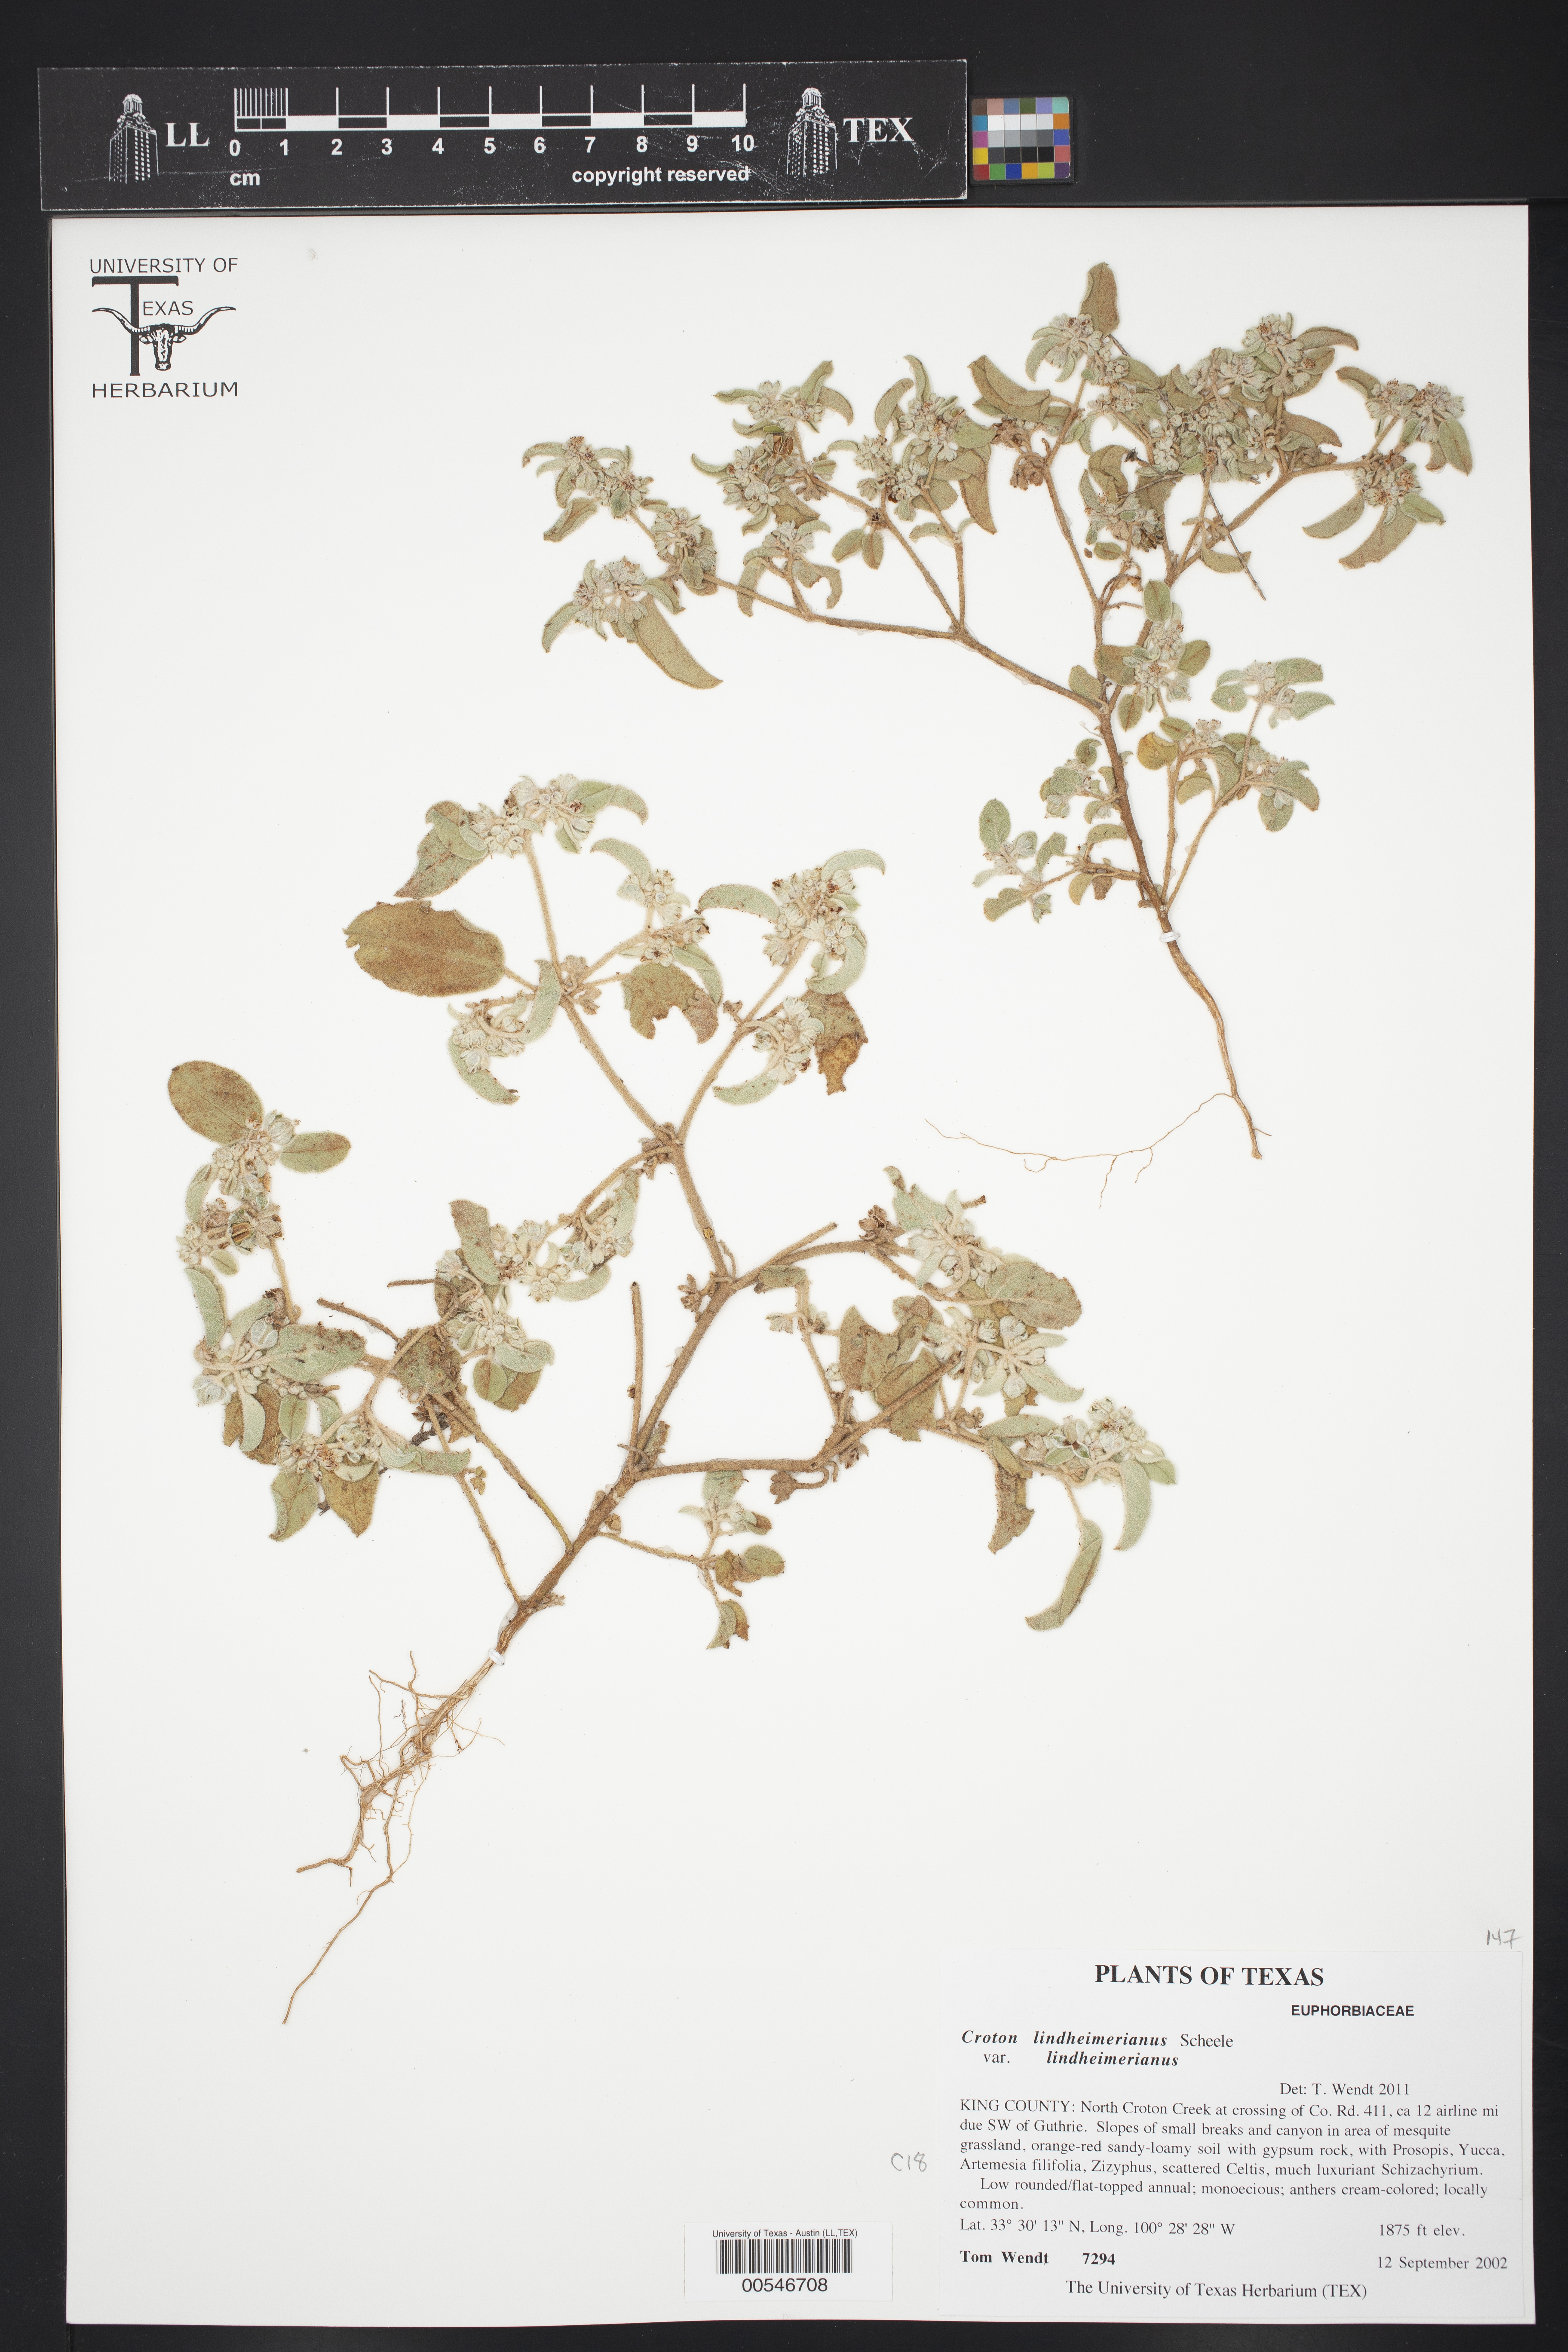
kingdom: Plantae
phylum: Tracheophyta
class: Magnoliopsida
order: Malpighiales
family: Euphorbiaceae
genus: Croton
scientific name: Croton lindheimerianus
